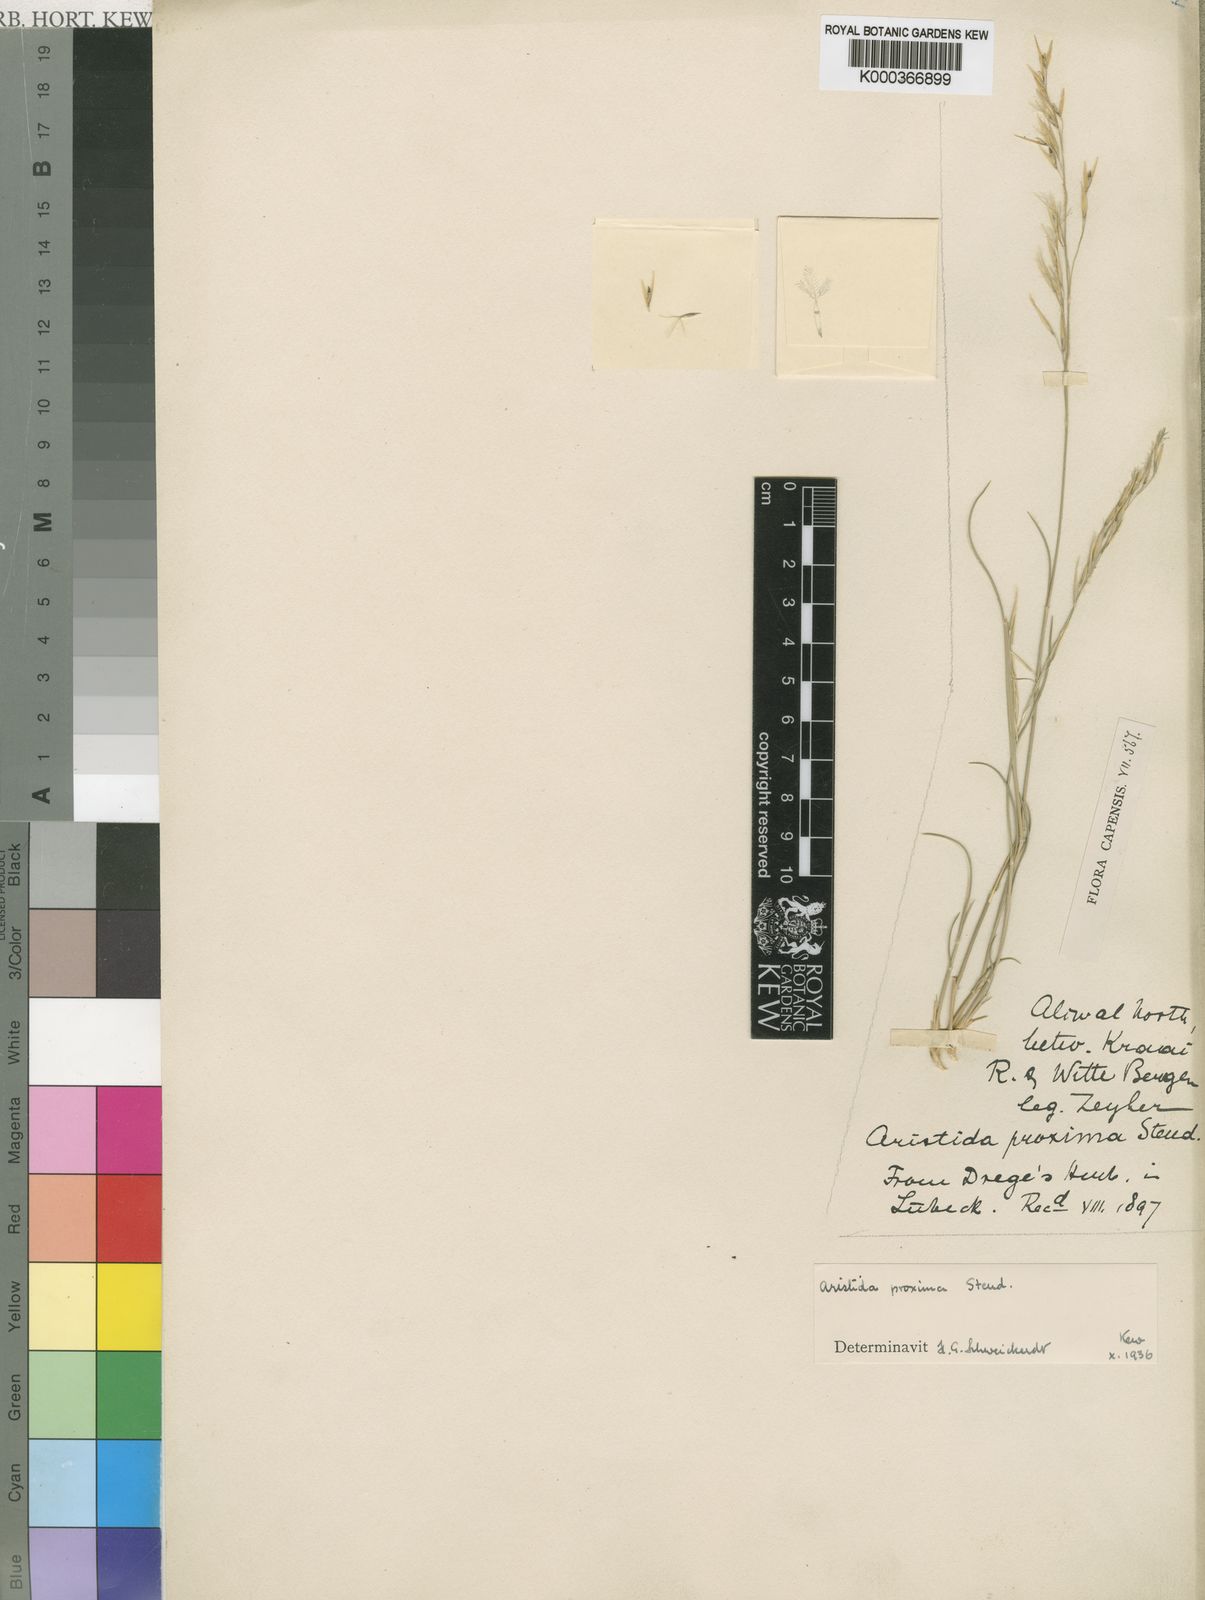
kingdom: Plantae
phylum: Tracheophyta
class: Liliopsida
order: Poales
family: Poaceae
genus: Stipagrostis
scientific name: Stipagrostis namaquensis
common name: River bushman grass
